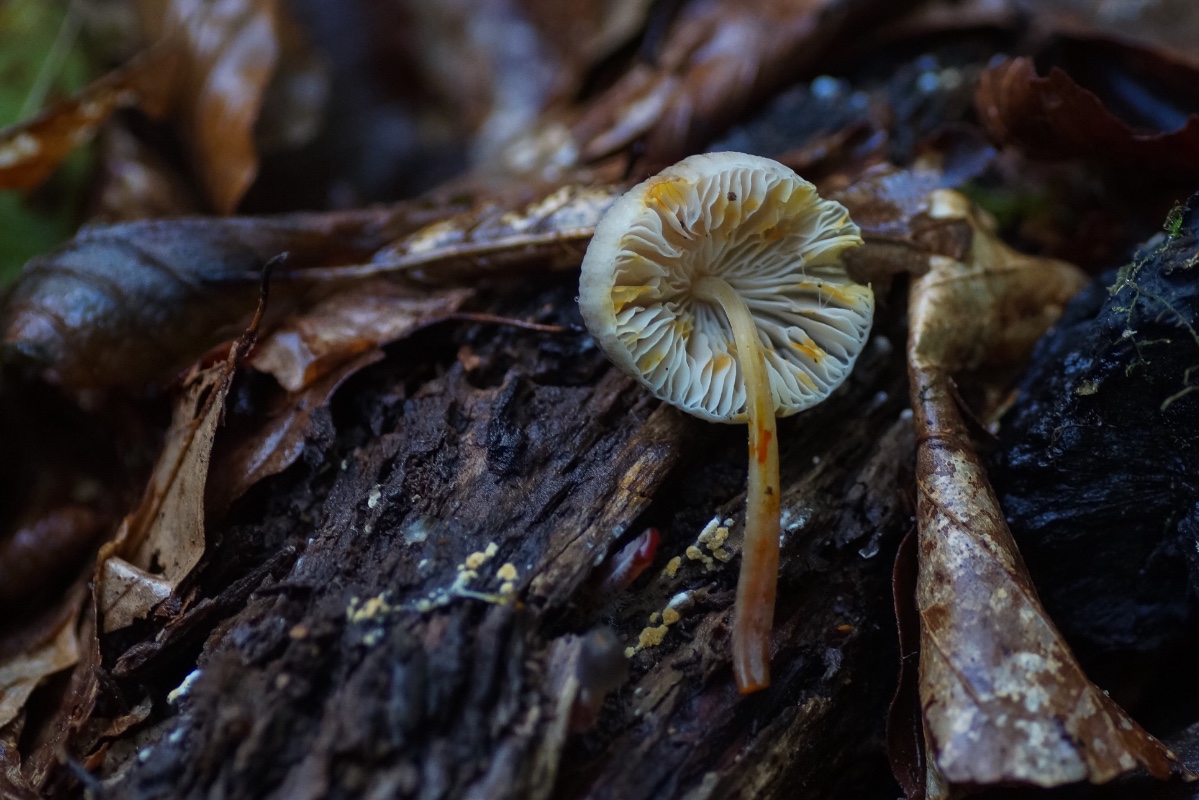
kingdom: Fungi
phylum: Basidiomycota
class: Agaricomycetes
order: Agaricales
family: Mycenaceae
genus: Mycena
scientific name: Mycena crocata
